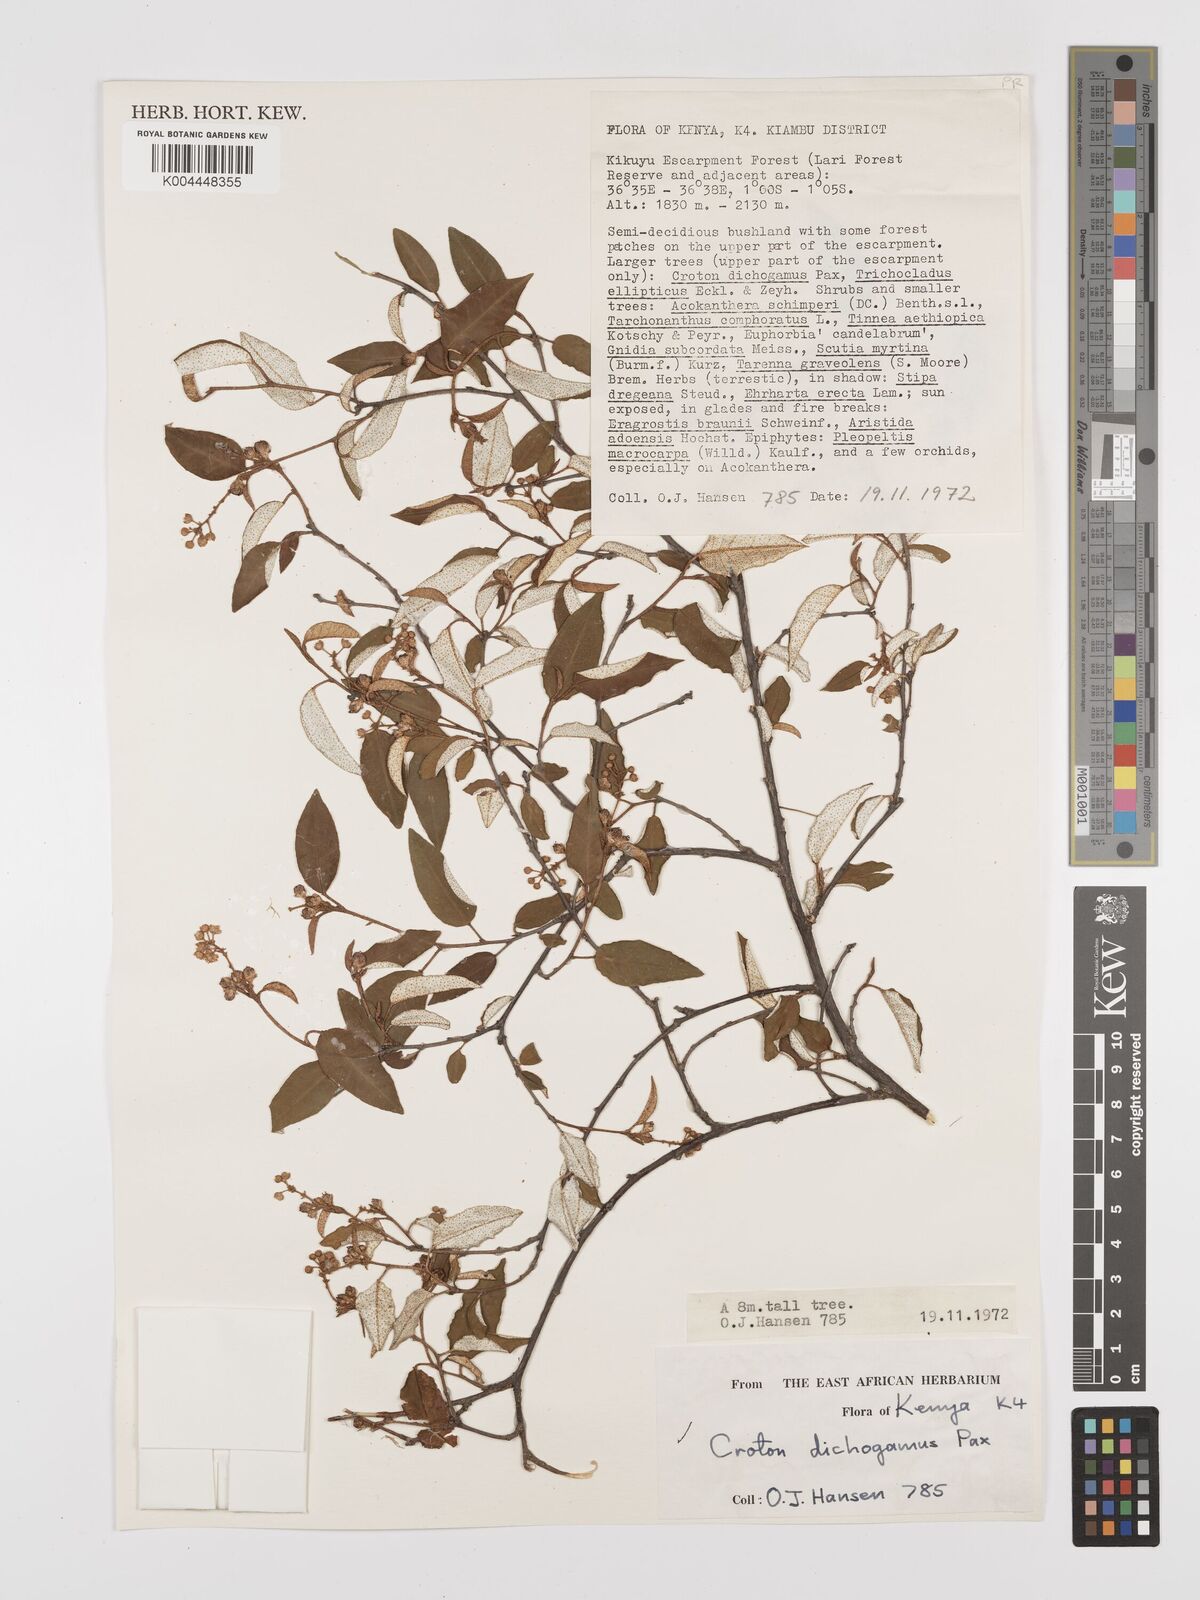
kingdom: Plantae
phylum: Tracheophyta
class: Magnoliopsida
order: Malpighiales
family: Euphorbiaceae
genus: Croton
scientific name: Croton dichogamus
